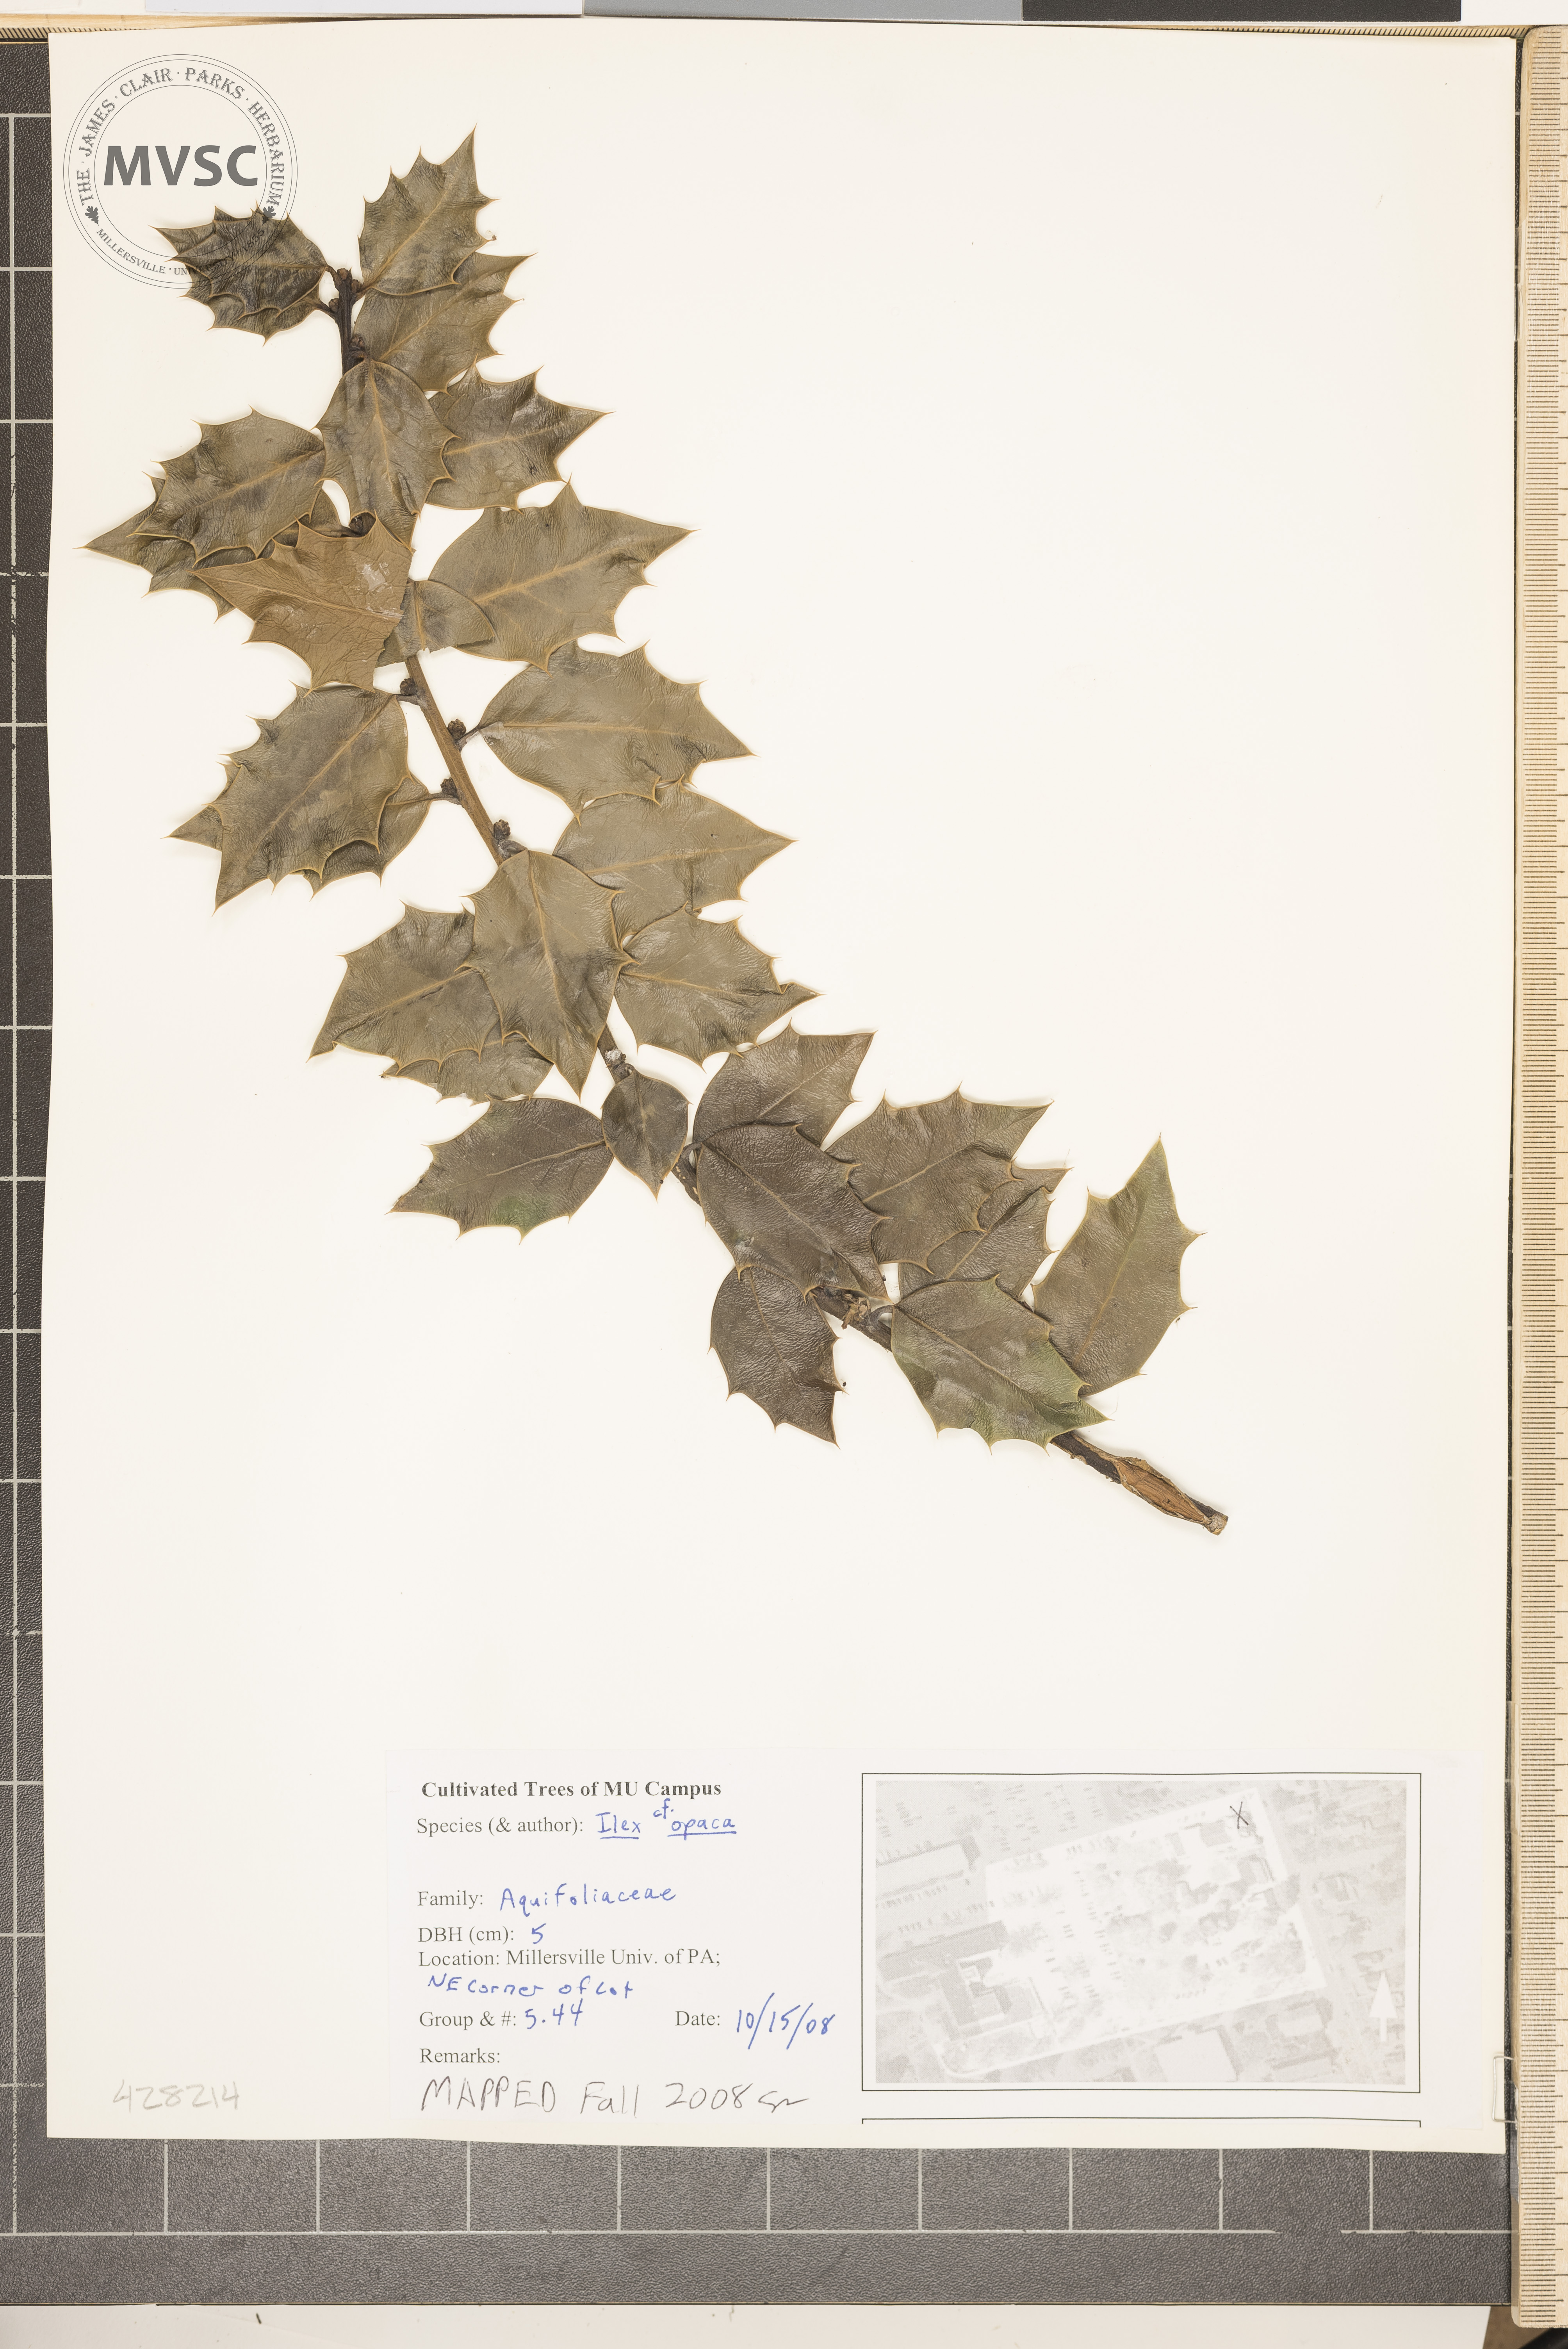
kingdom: Plantae
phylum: Tracheophyta
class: Magnoliopsida
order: Aquifoliales
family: Aquifoliaceae
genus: Ilex
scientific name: Ilex opaca
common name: American Holly
